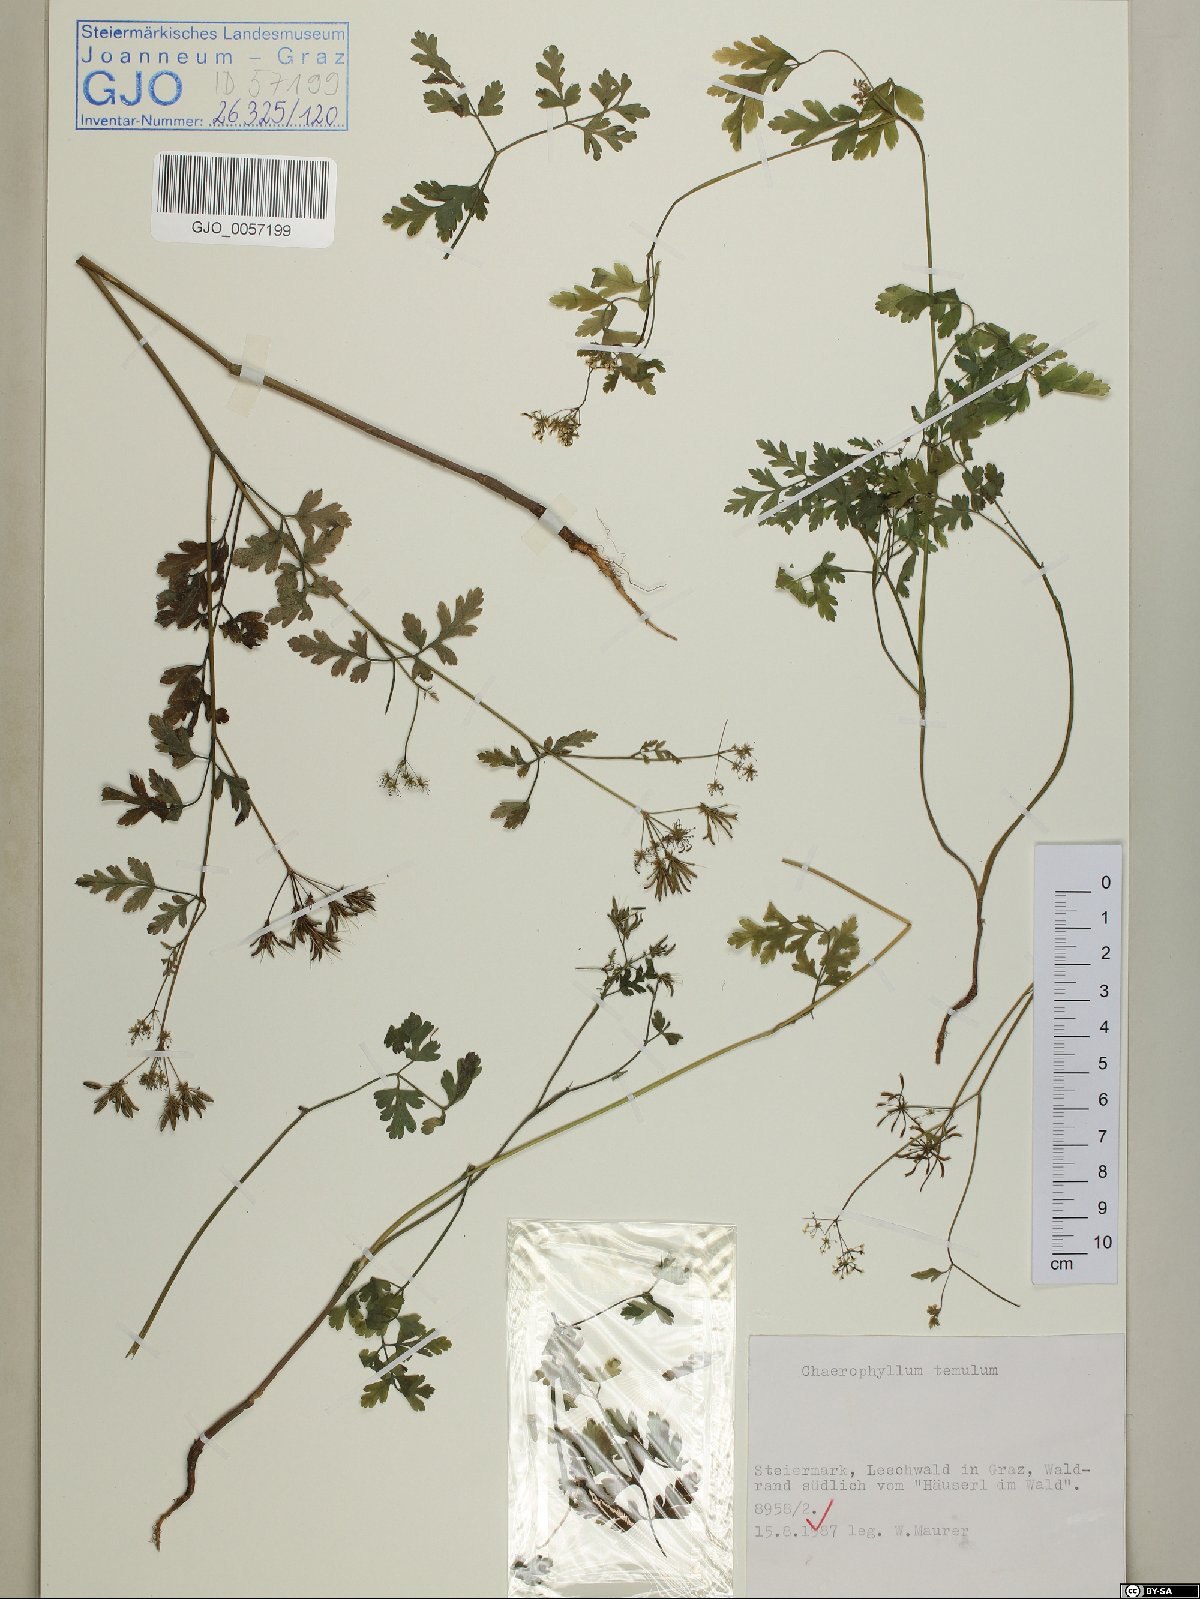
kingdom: Plantae
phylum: Tracheophyta
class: Magnoliopsida
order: Apiales
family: Apiaceae
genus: Chaerophyllum
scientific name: Chaerophyllum temulum
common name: Rough chervil
